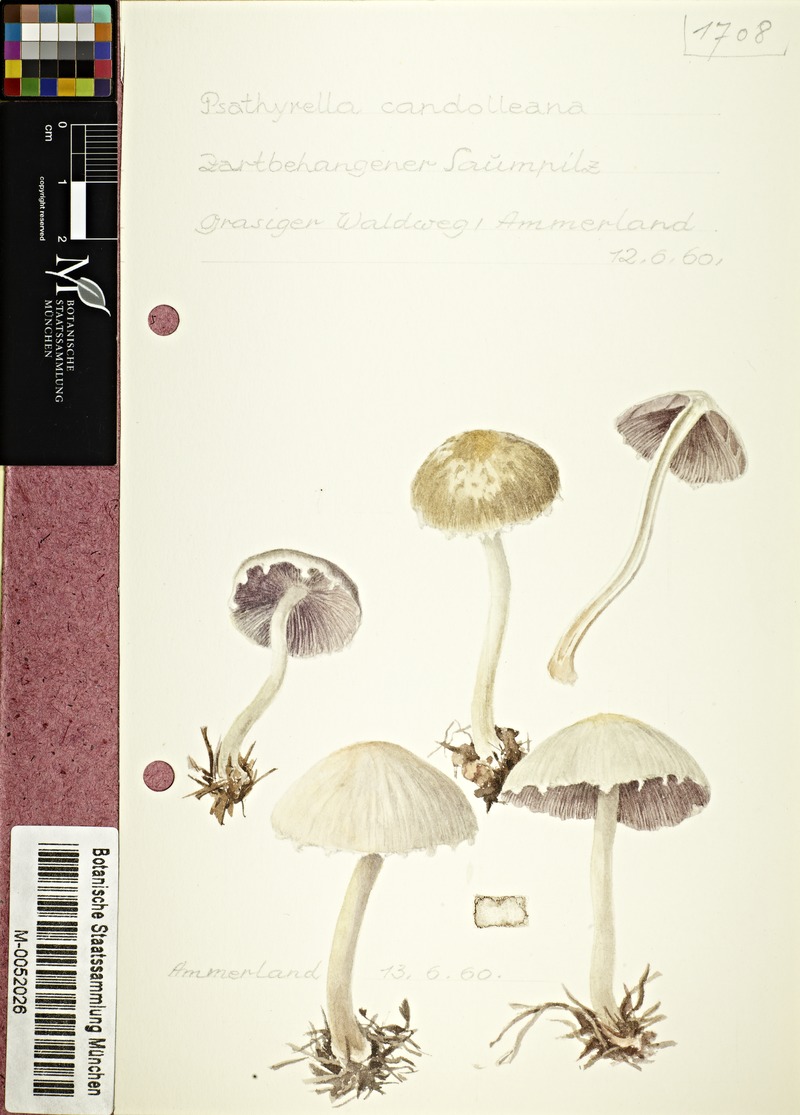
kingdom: Fungi
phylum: Basidiomycota
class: Agaricomycetes
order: Agaricales
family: Psathyrellaceae
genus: Candolleomyces
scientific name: Candolleomyces candolleanus
